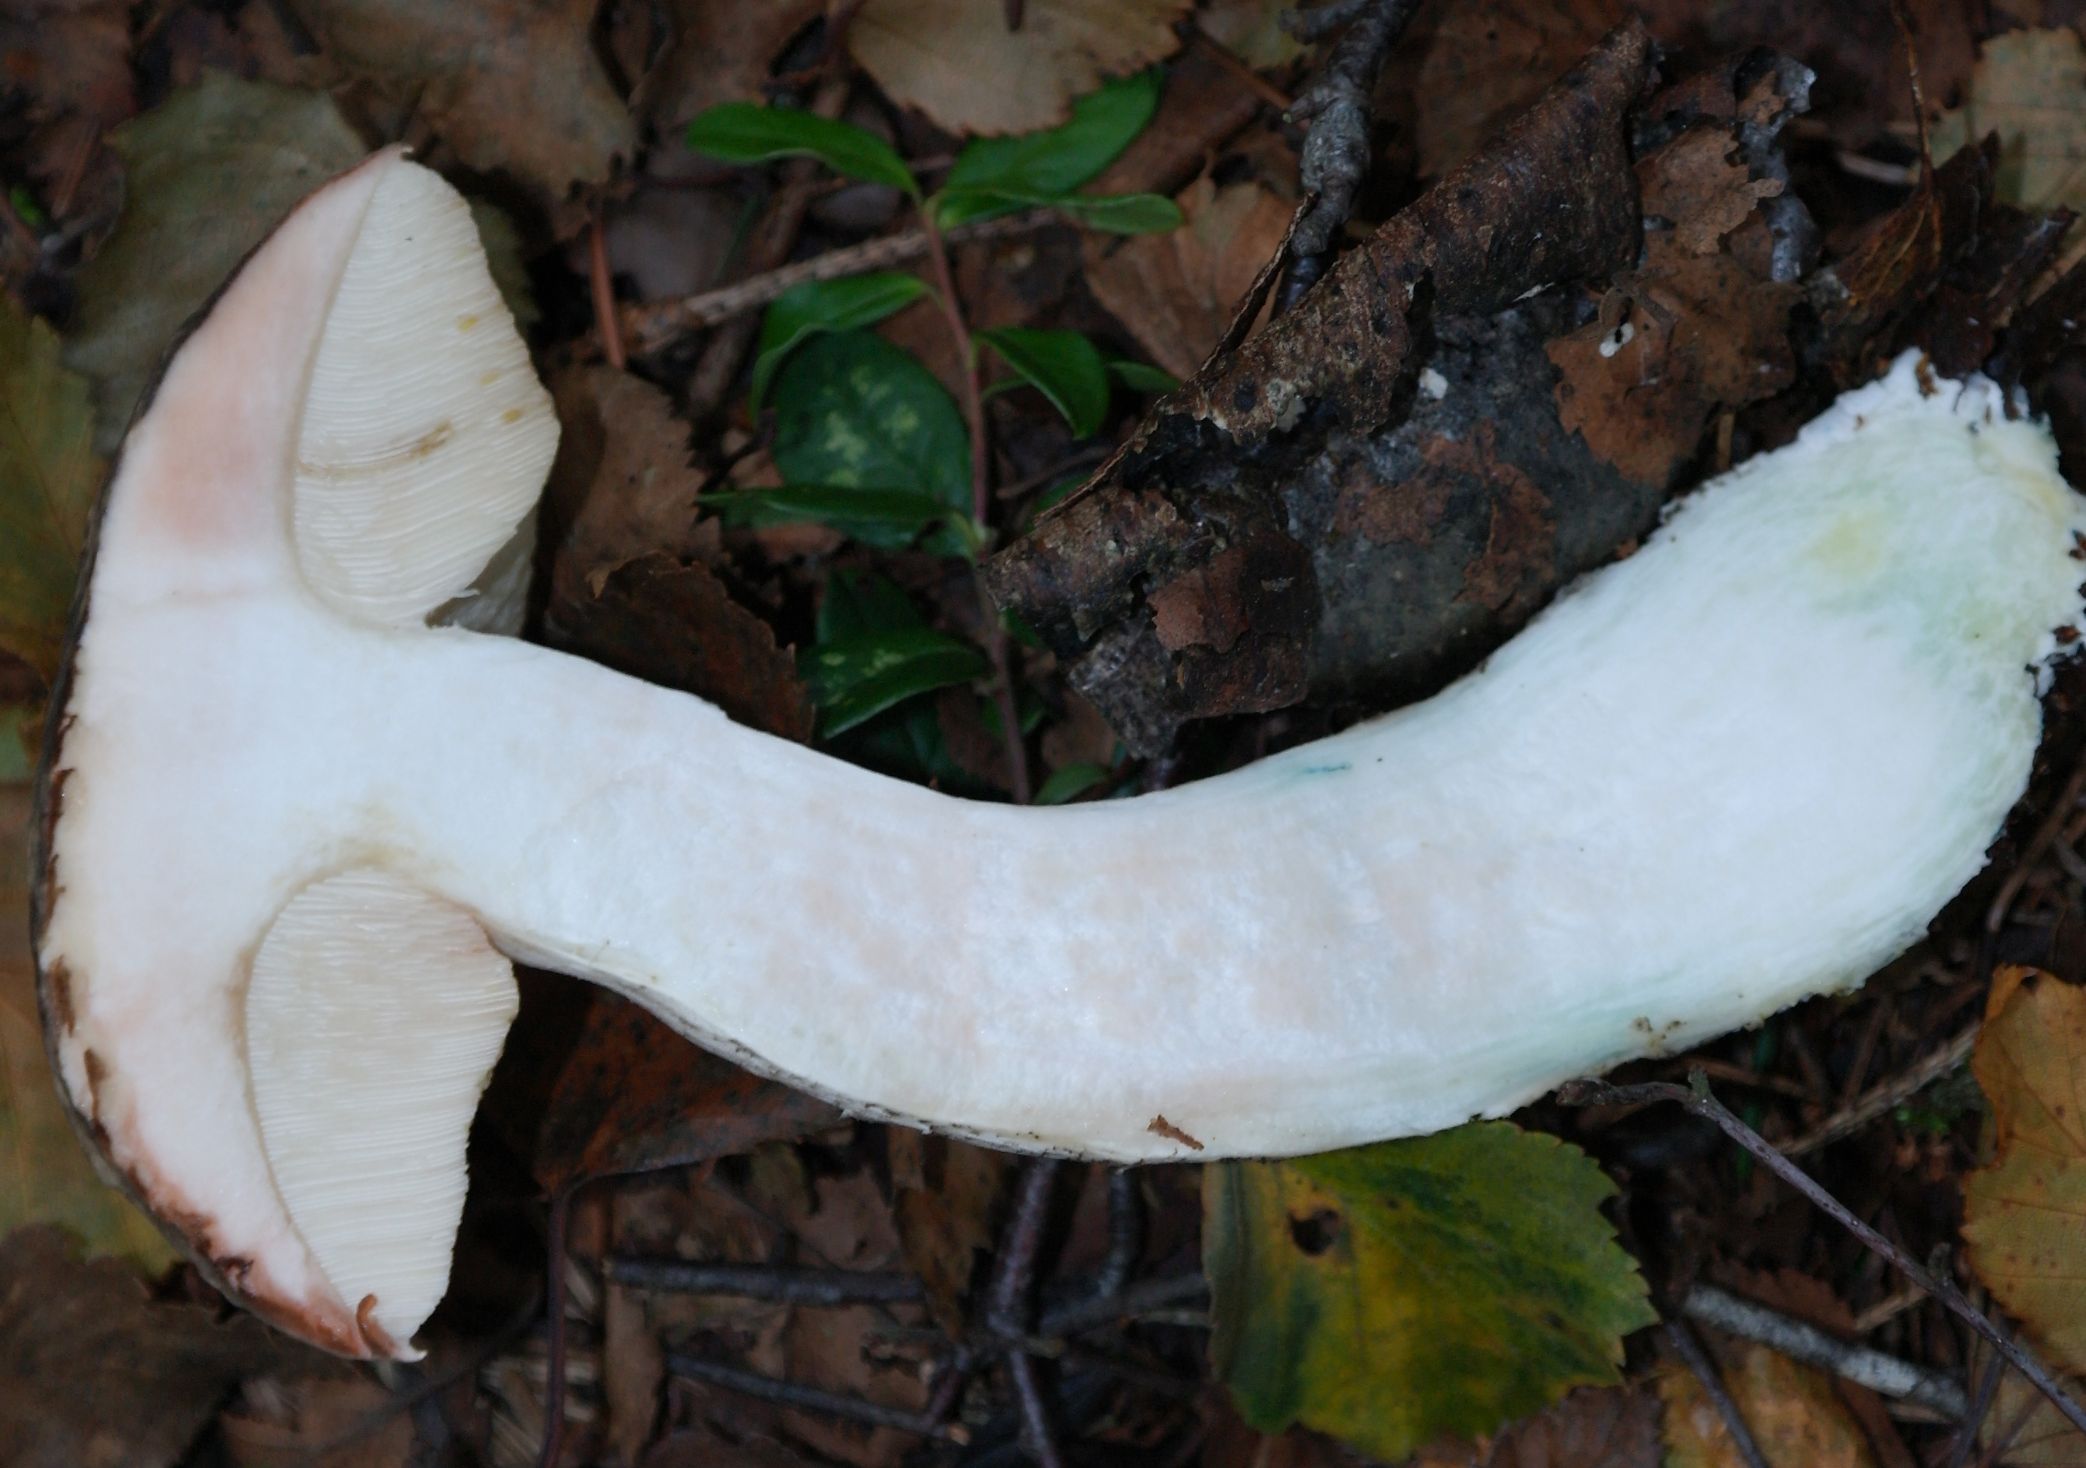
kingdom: Fungi
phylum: Basidiomycota
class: Agaricomycetes
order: Boletales
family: Boletaceae
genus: Leccinum
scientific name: Leccinum variicolor
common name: flammet skælrørhat
